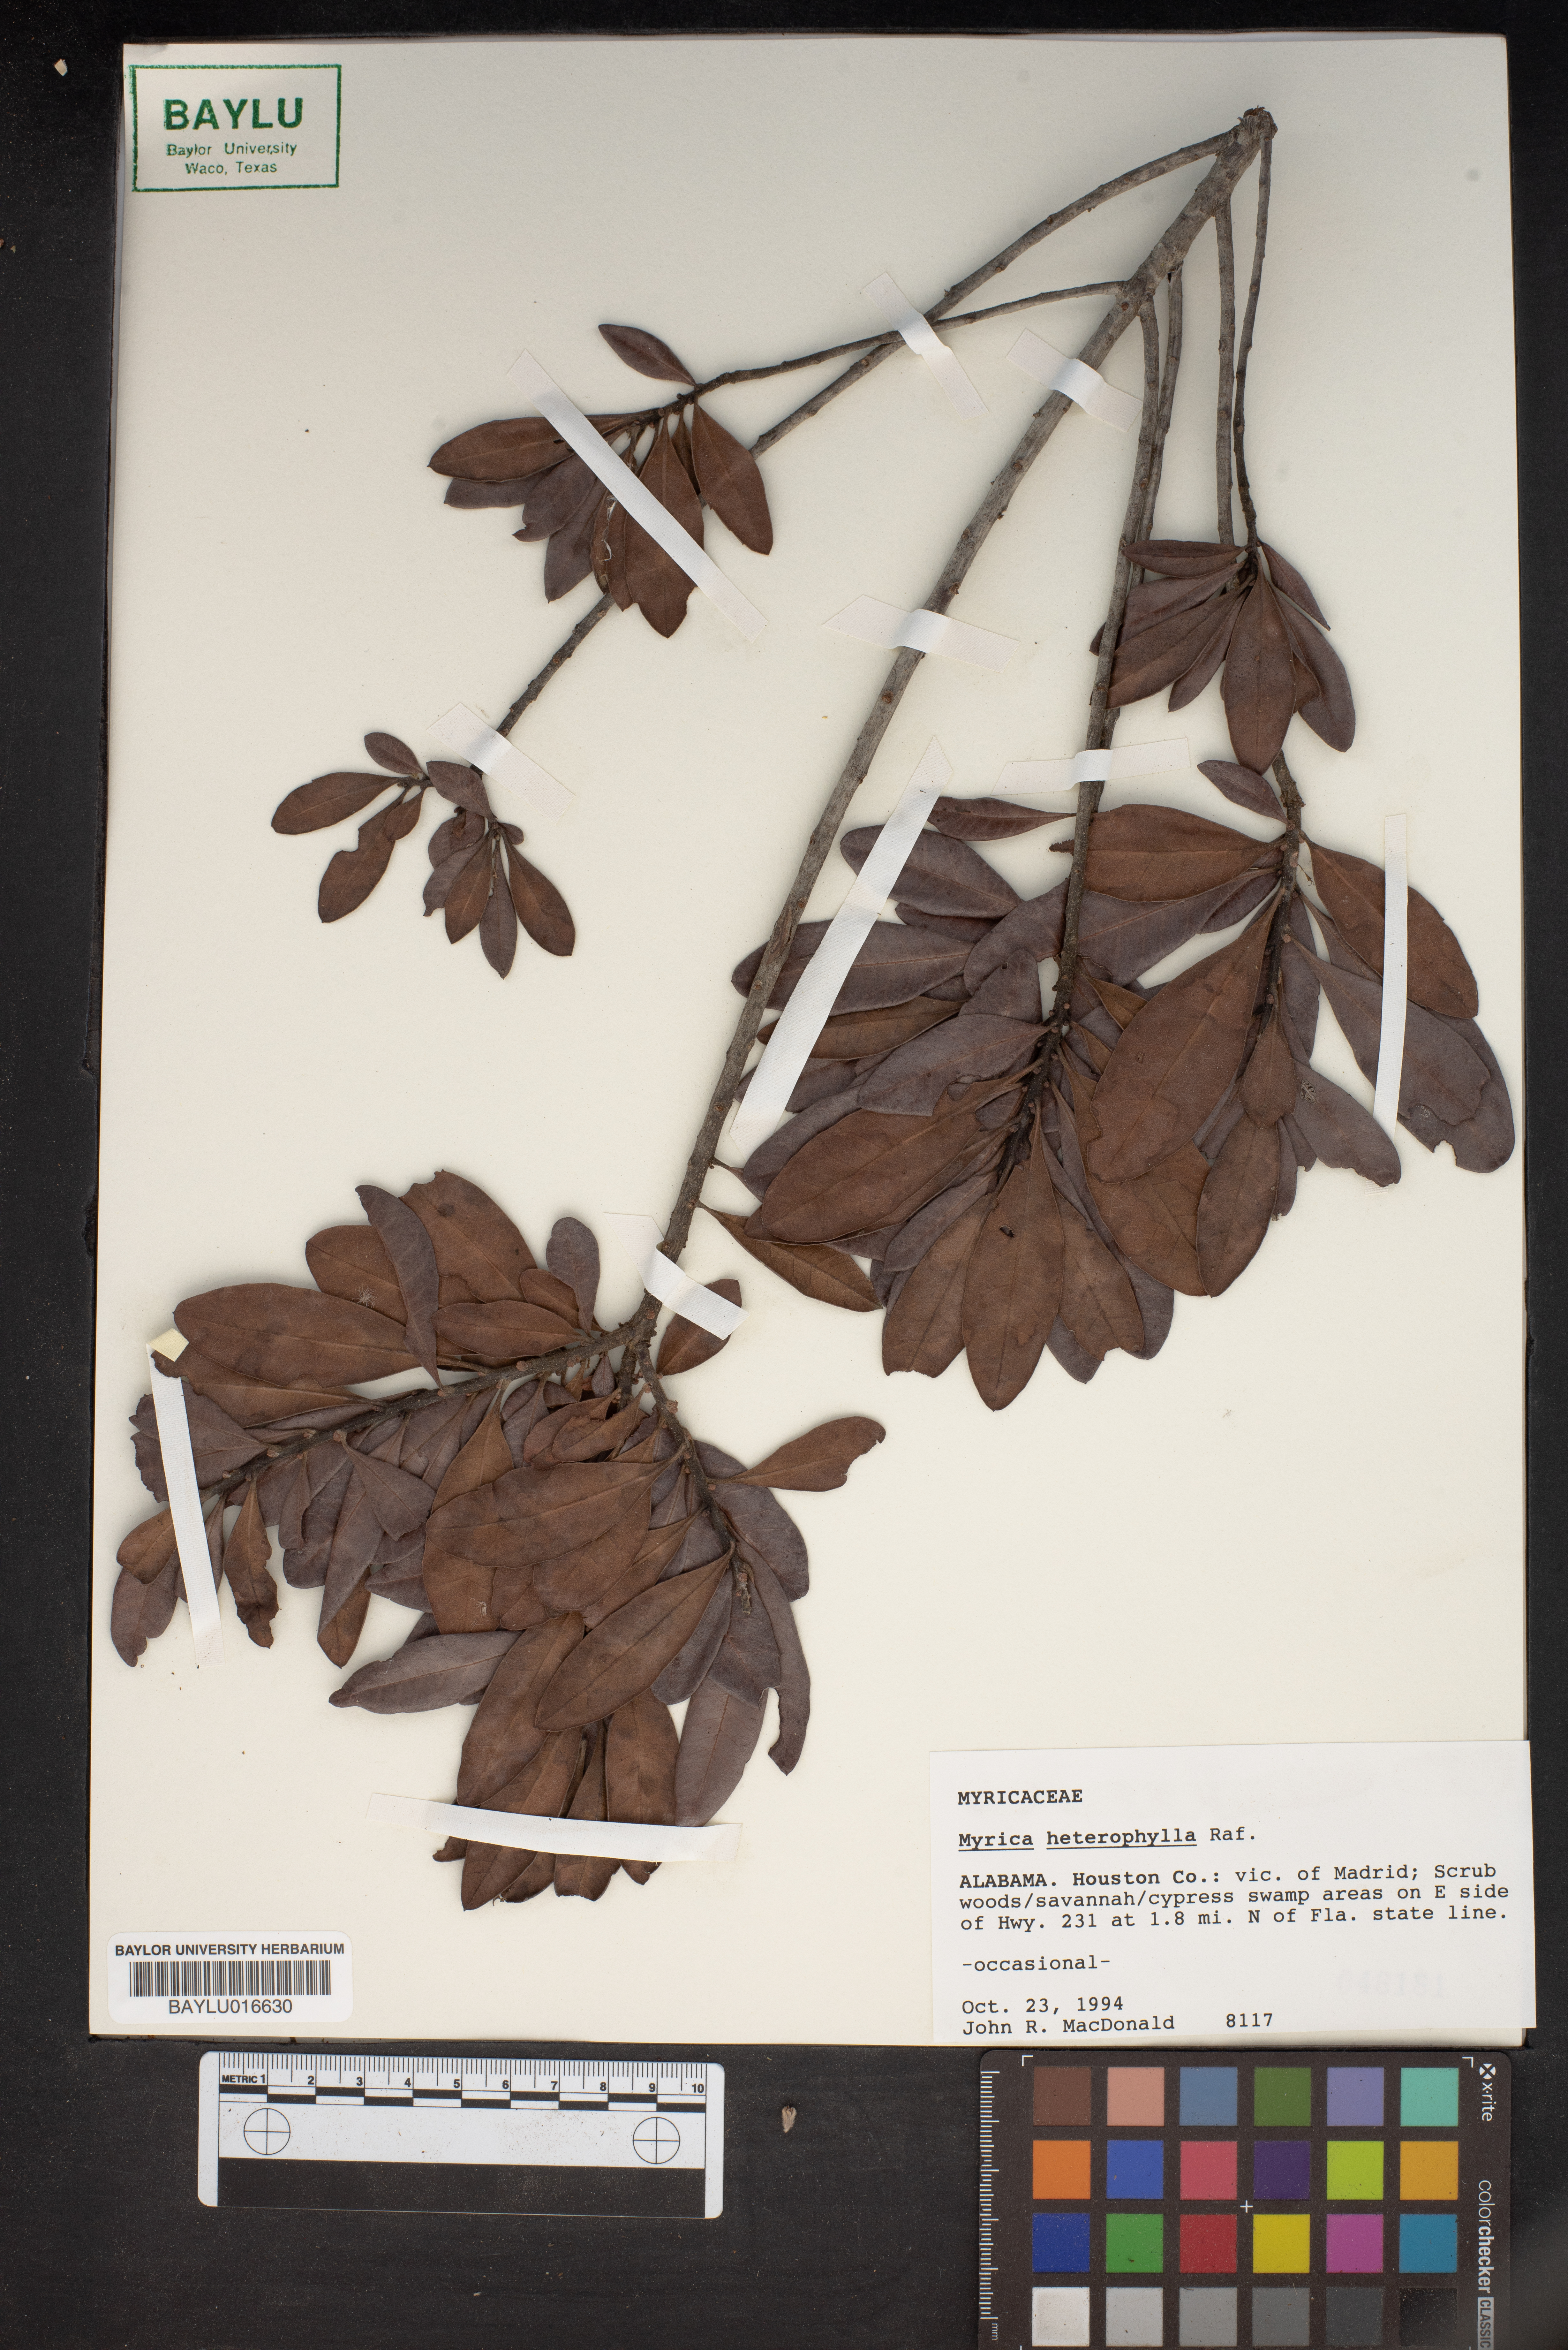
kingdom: Plantae
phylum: Tracheophyta
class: Magnoliopsida
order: Fagales
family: Myricaceae
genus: Morella
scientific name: Morella caroliniensis
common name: Evergreen bayberry
